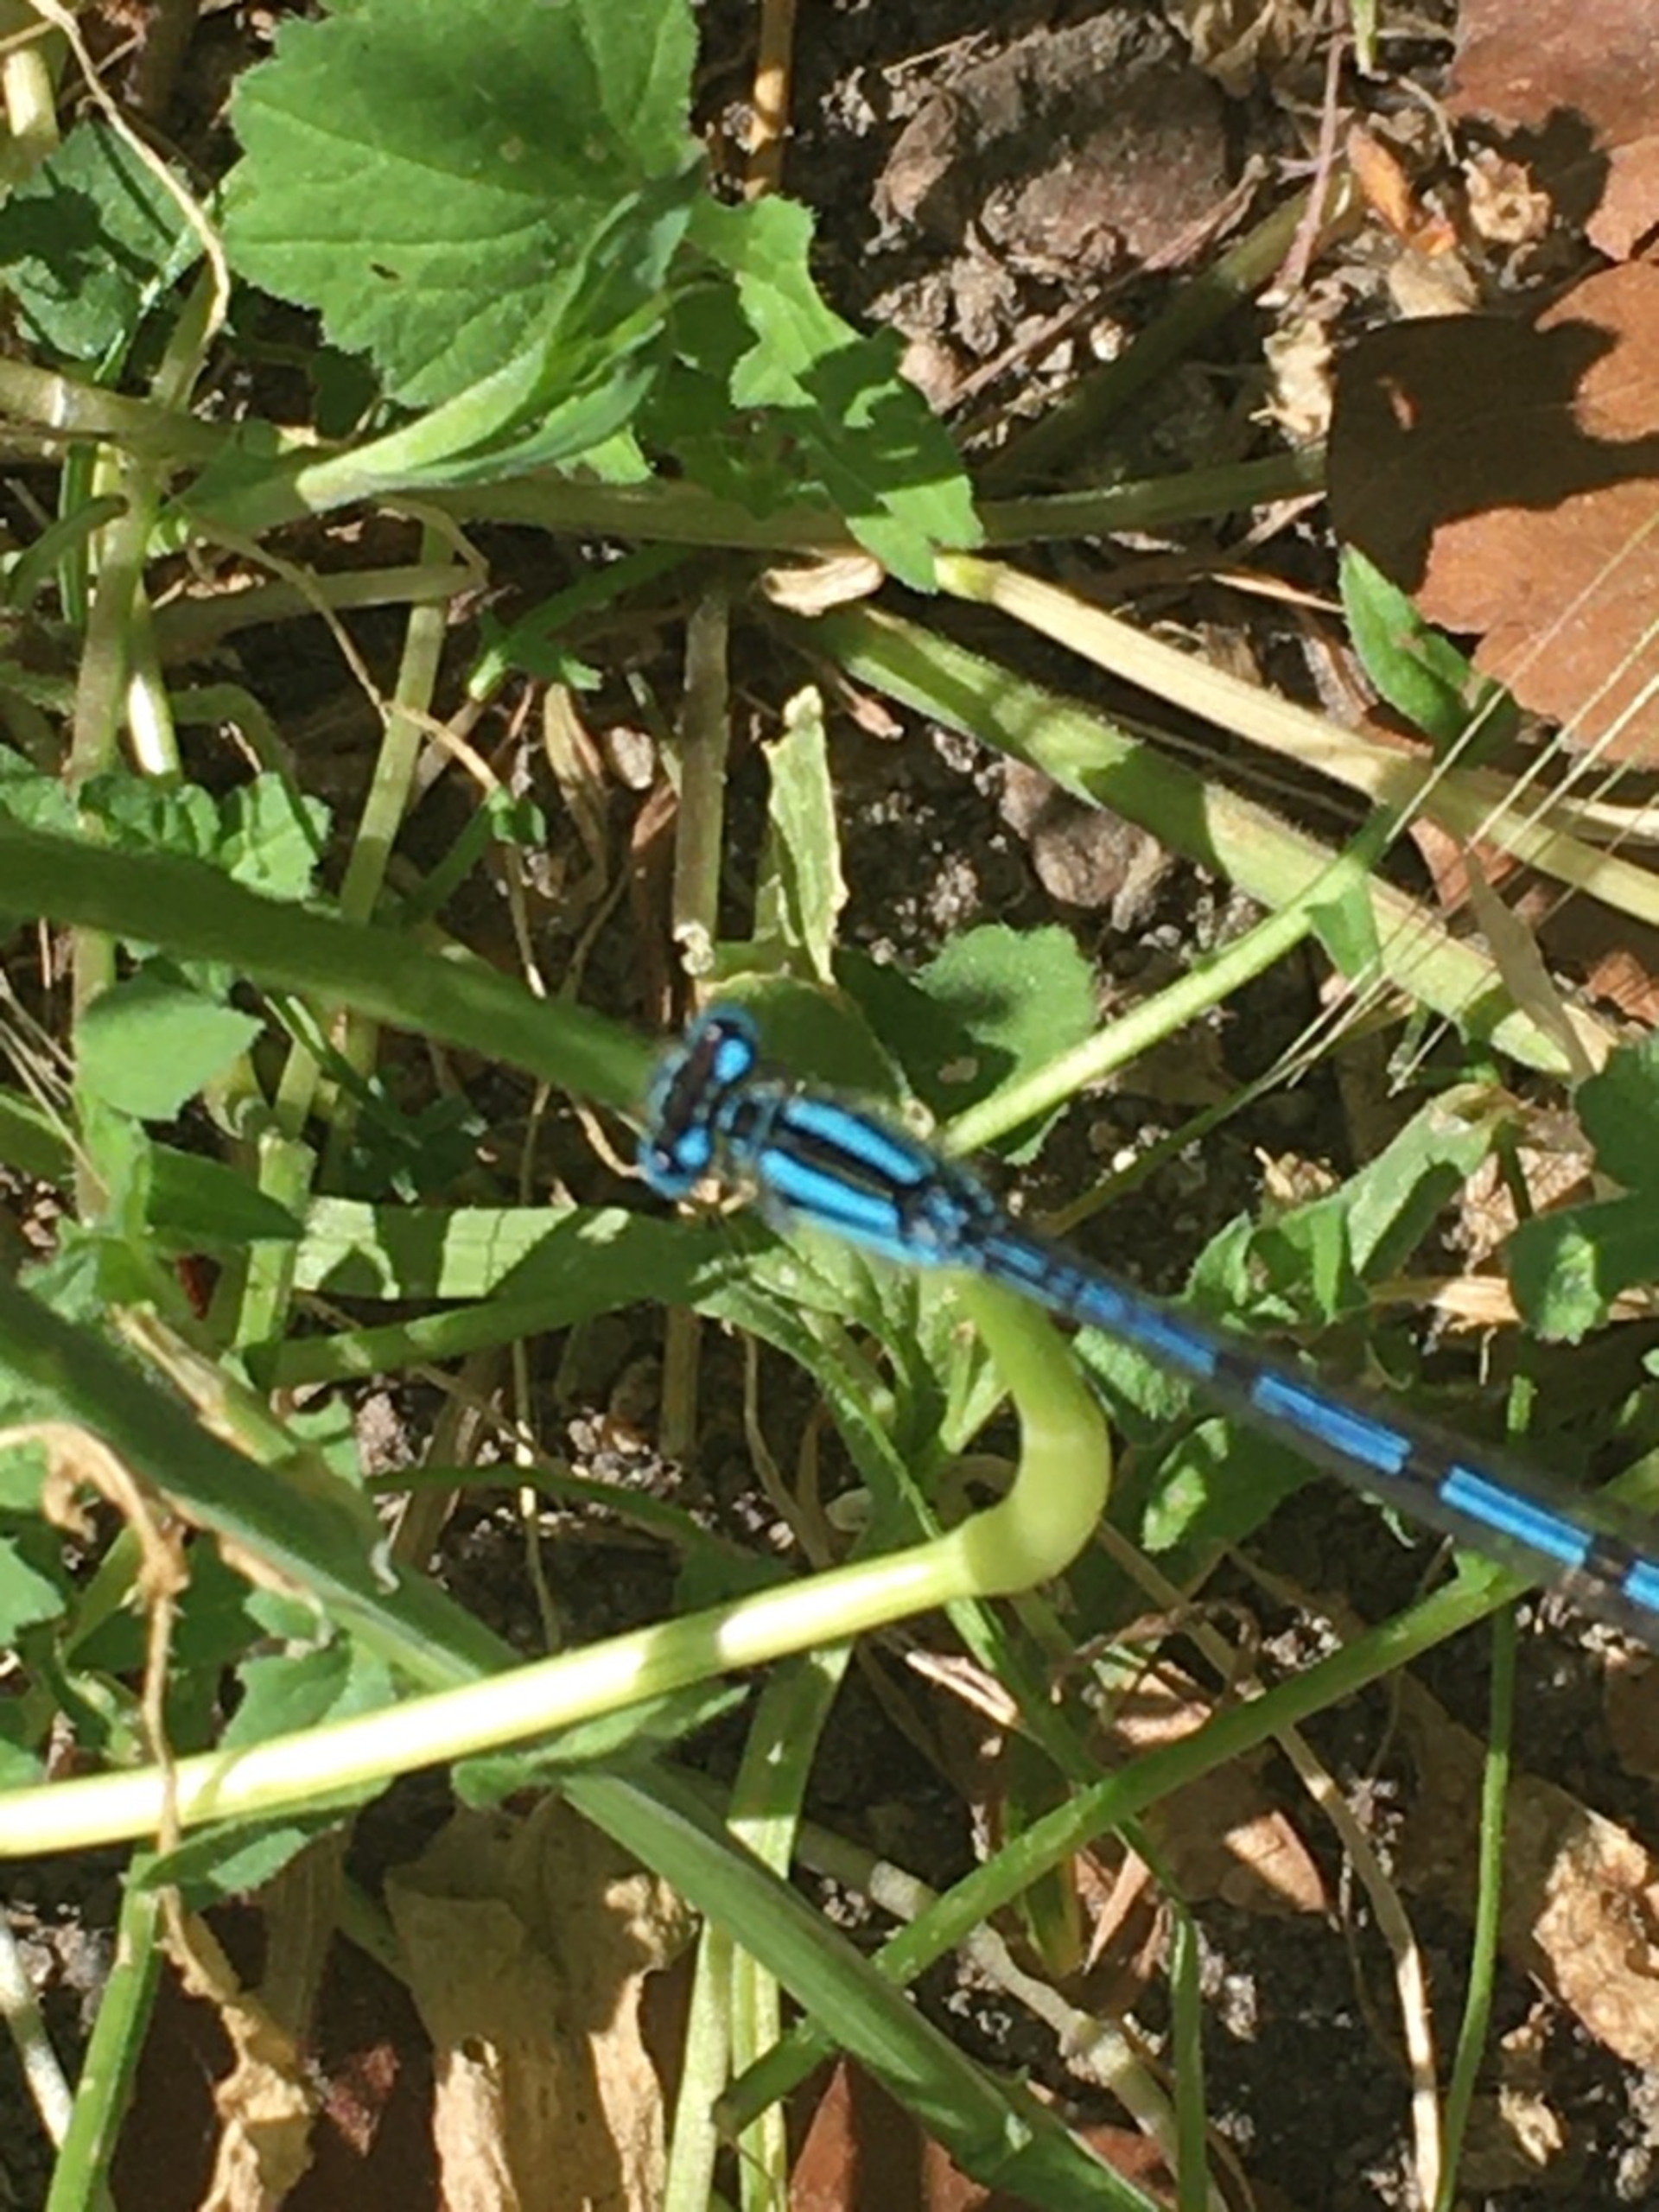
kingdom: Animalia
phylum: Arthropoda
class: Insecta
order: Odonata
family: Coenagrionidae
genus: Enallagma
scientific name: Enallagma cyathigerum
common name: Almindelig vandnymfe
